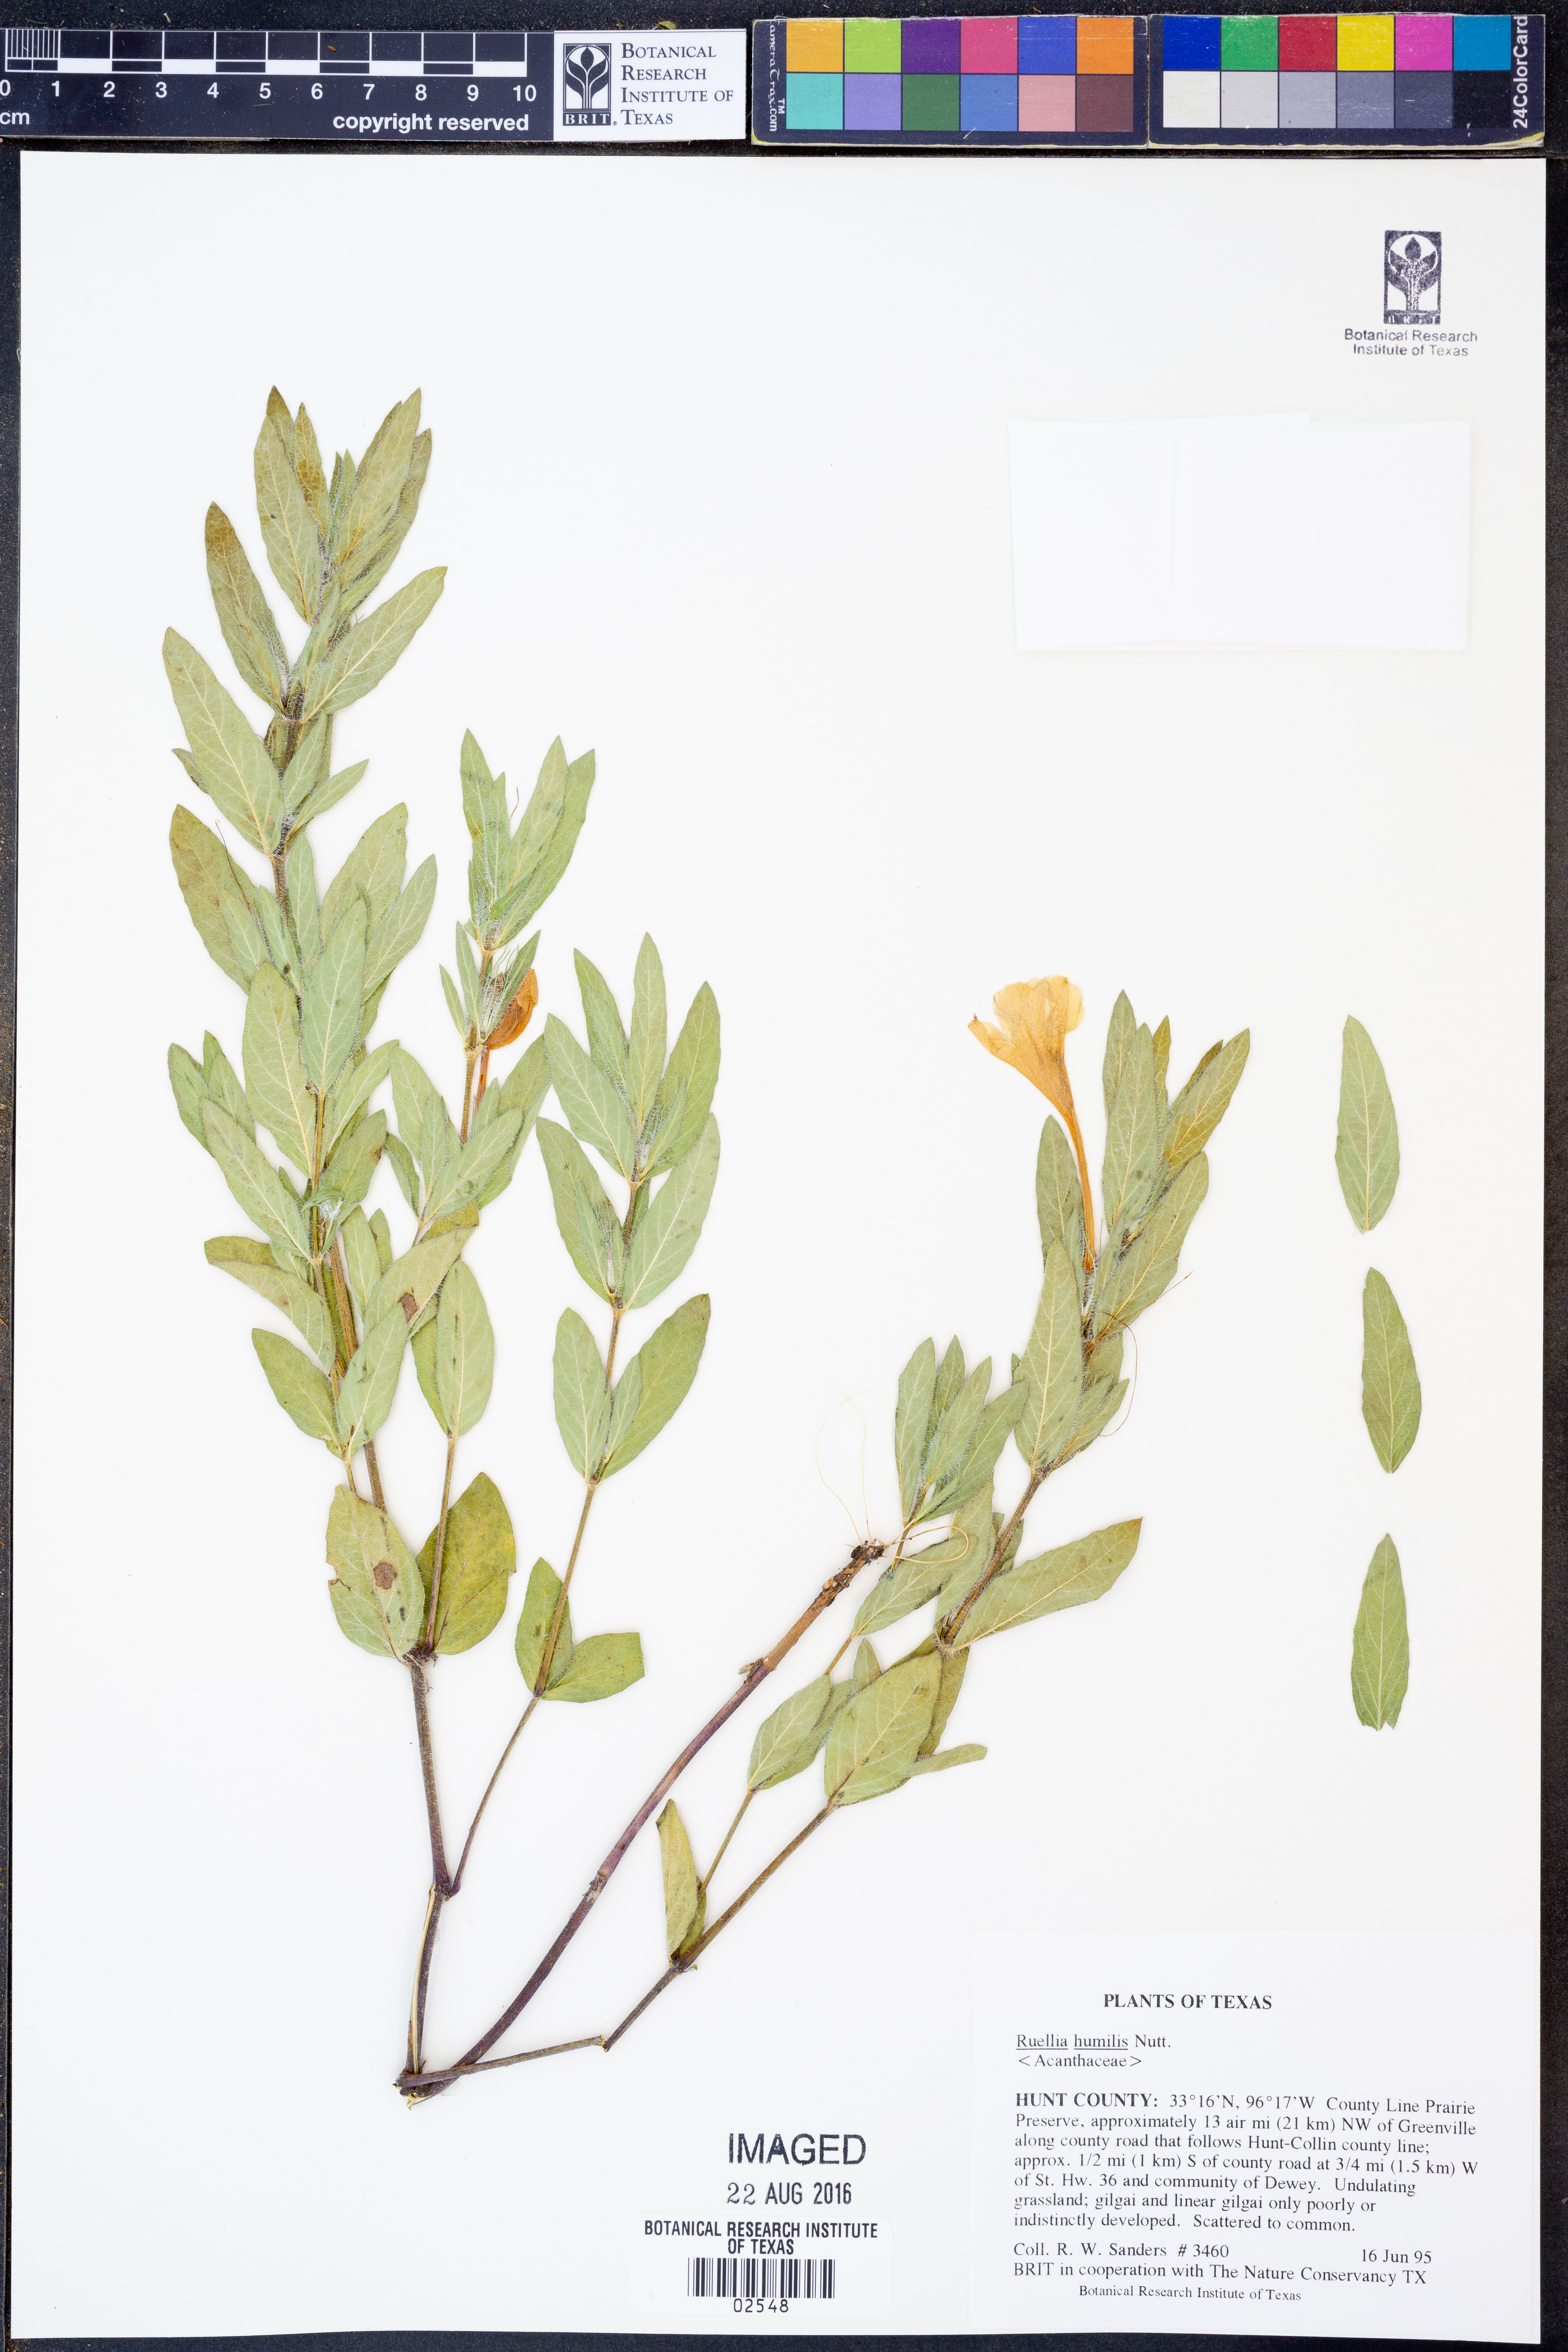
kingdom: Plantae
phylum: Tracheophyta
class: Magnoliopsida
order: Lamiales
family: Acanthaceae
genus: Ruellia
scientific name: Ruellia humilis
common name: Fringe-leaf ruellia
